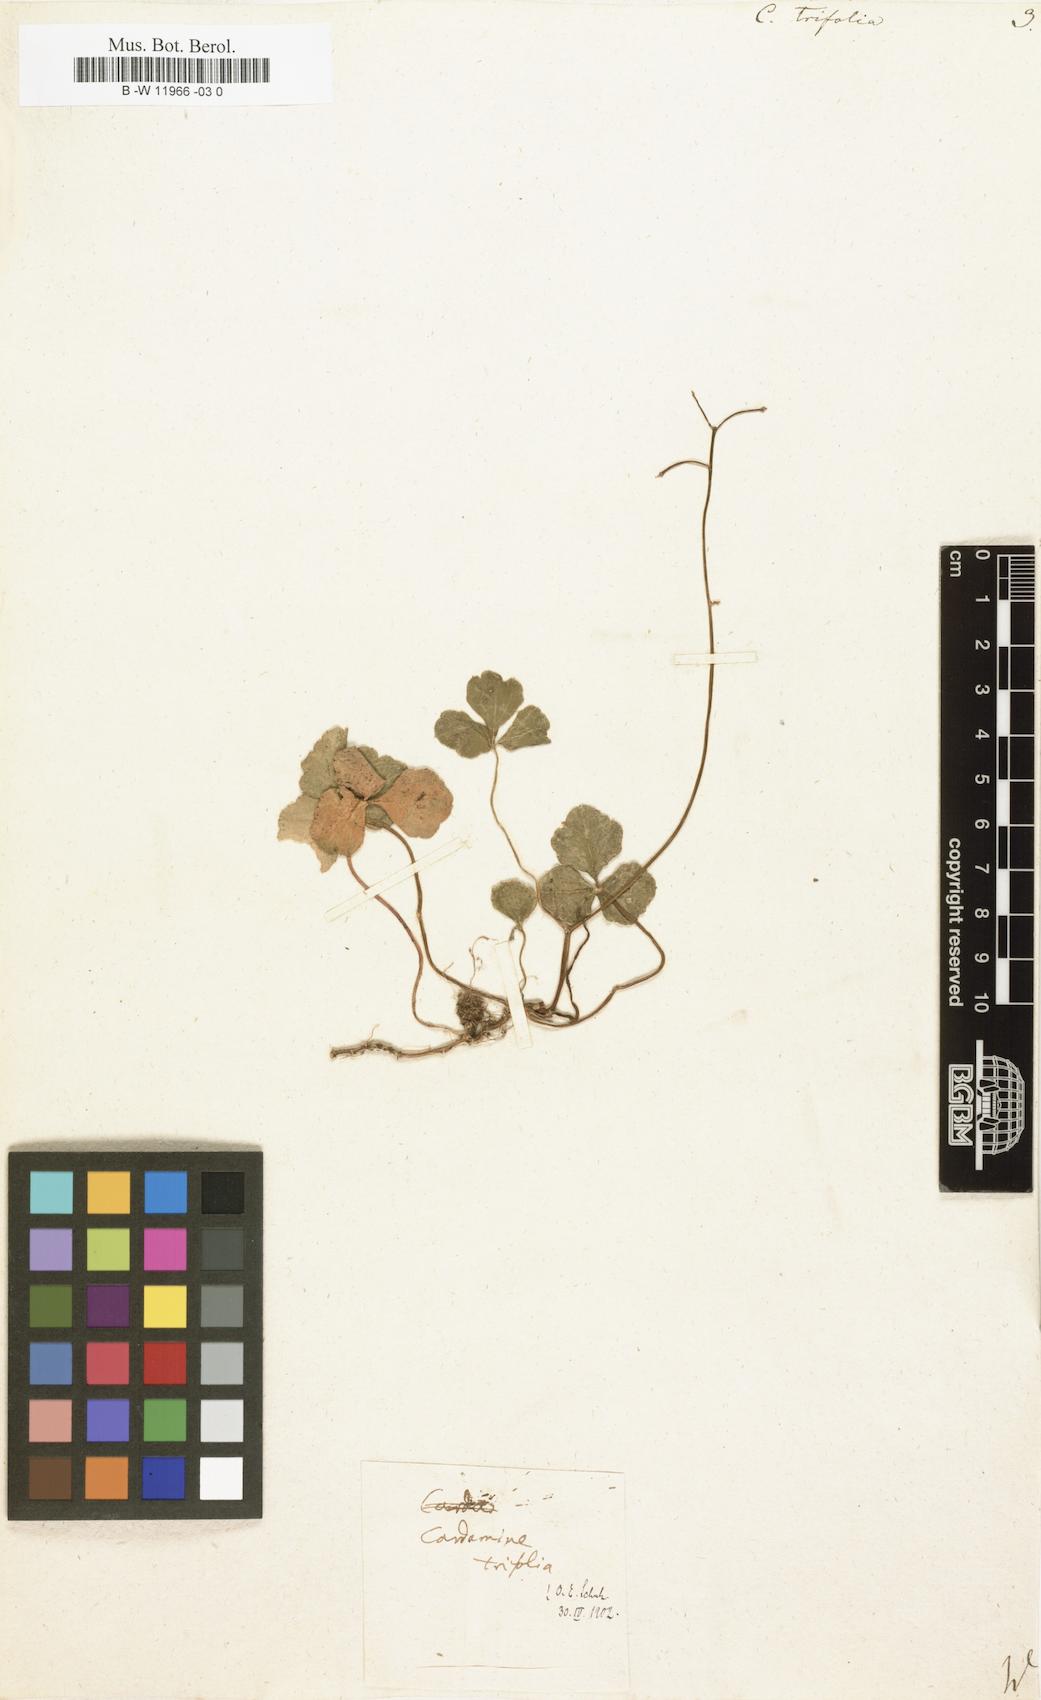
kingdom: Plantae
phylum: Tracheophyta
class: Magnoliopsida
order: Brassicales
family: Brassicaceae
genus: Cardamine
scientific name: Cardamine trifolia
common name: Trefoil cress
